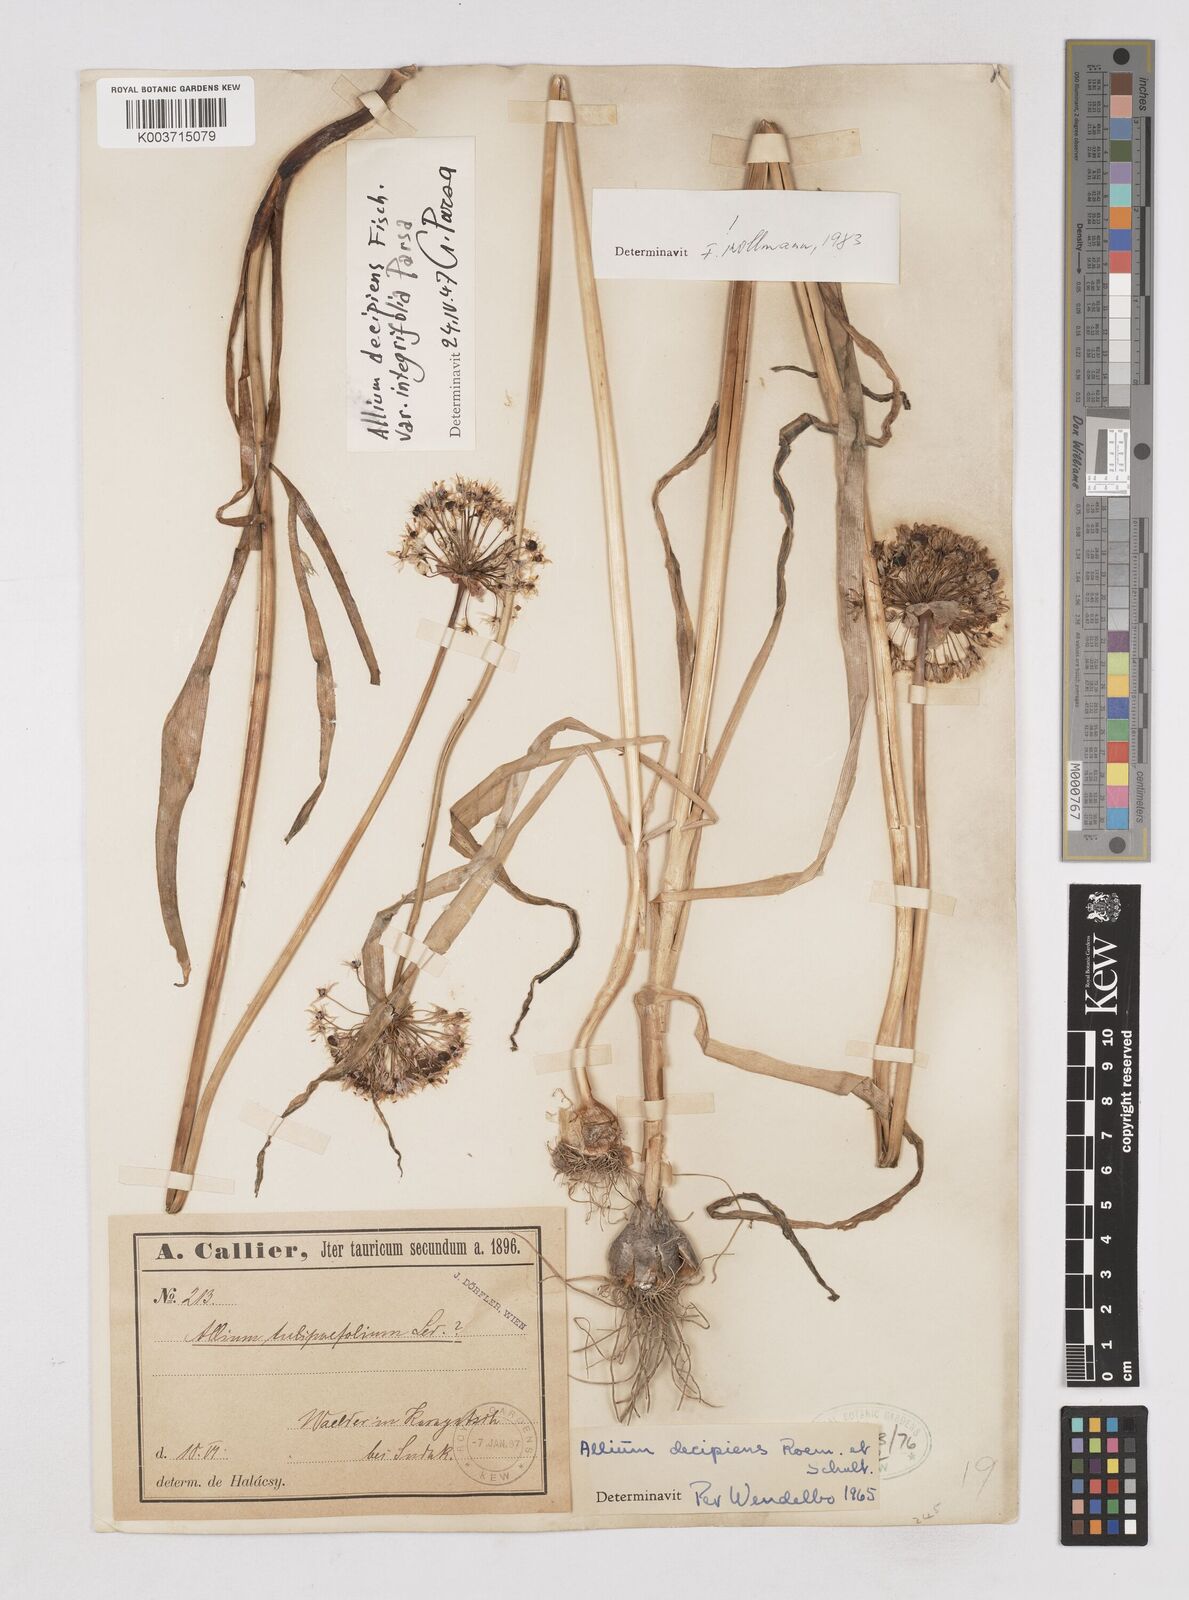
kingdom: Plantae
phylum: Tracheophyta
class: Liliopsida
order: Asparagales
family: Amaryllidaceae
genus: Allium
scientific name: Allium decipiens
